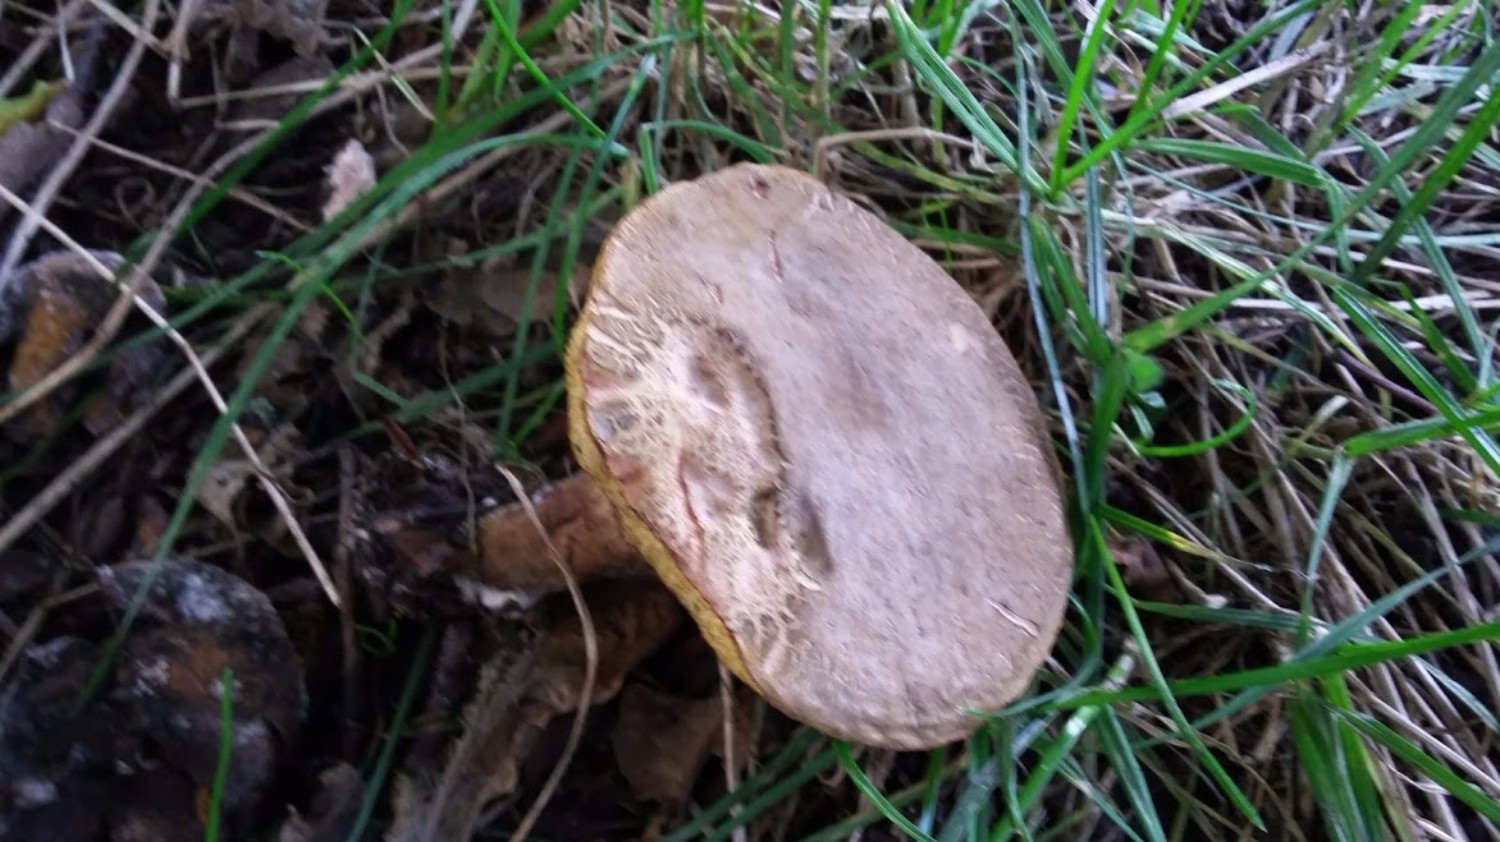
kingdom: Fungi
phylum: Basidiomycota
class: Agaricomycetes
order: Boletales
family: Boletaceae
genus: Xerocomellus
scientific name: Xerocomellus chrysenteron
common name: rødsprukken rørhat
